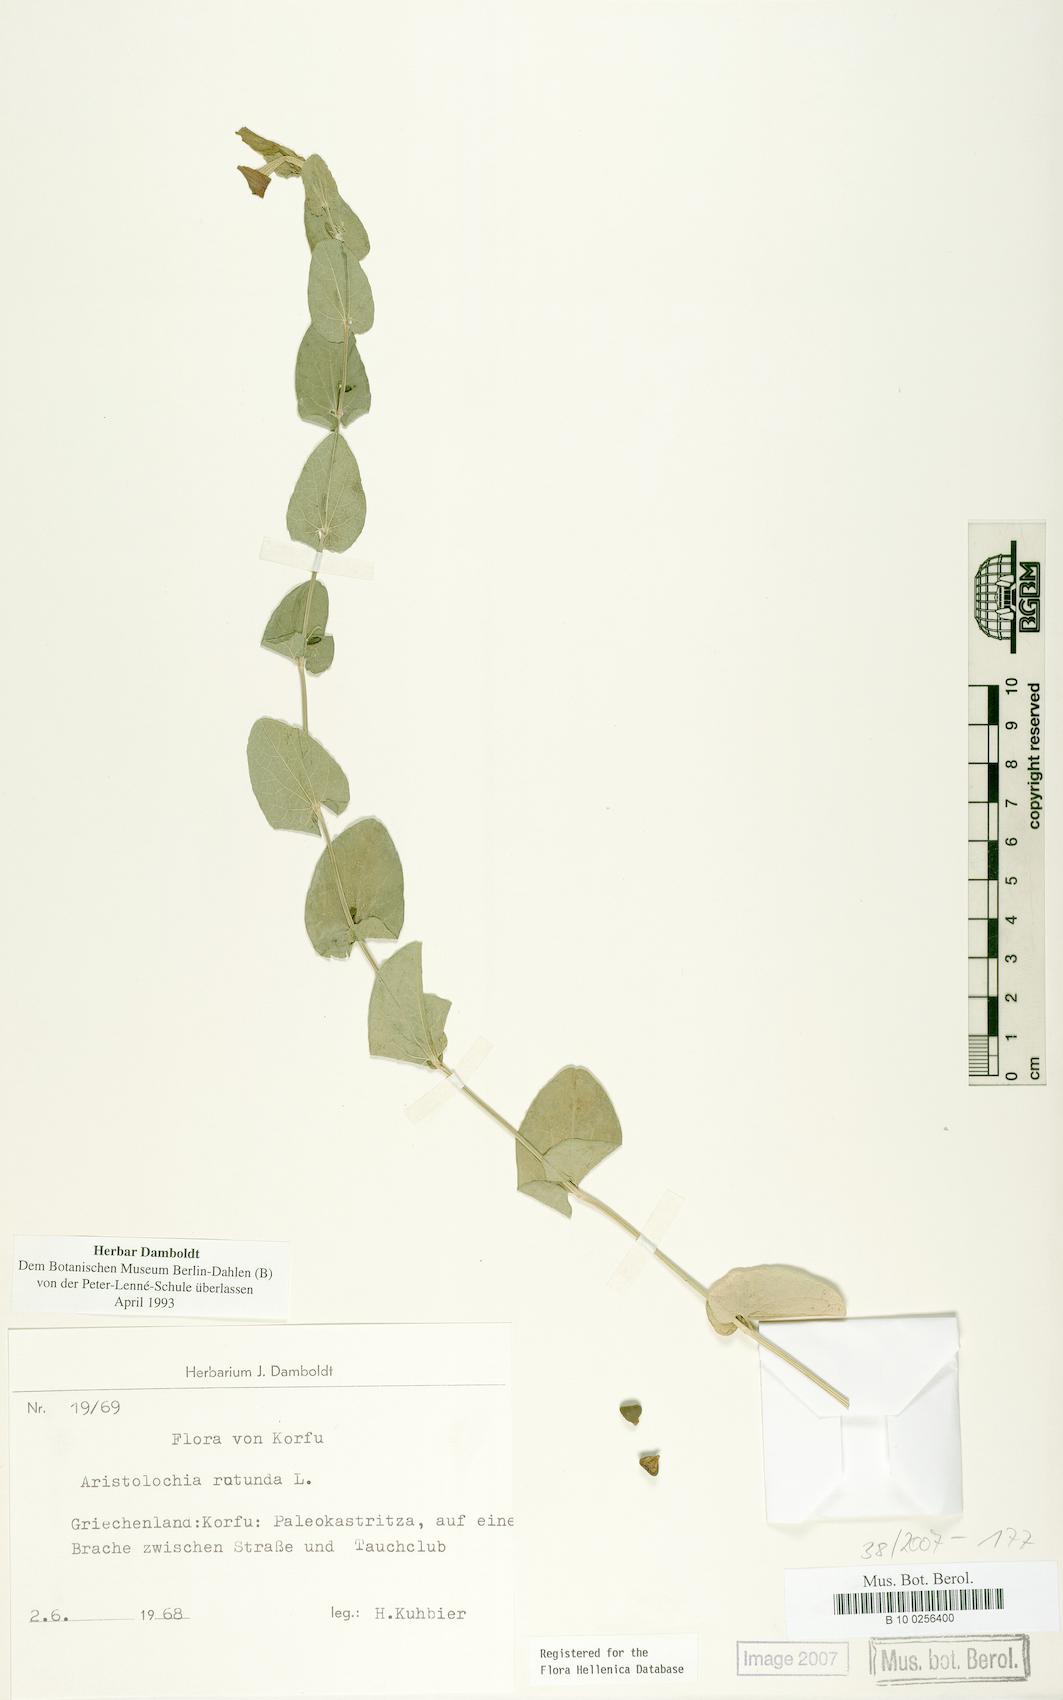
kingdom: Plantae
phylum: Tracheophyta
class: Magnoliopsida
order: Piperales
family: Aristolochiaceae
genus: Aristolochia
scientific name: Aristolochia rotunda
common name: Smearwort
